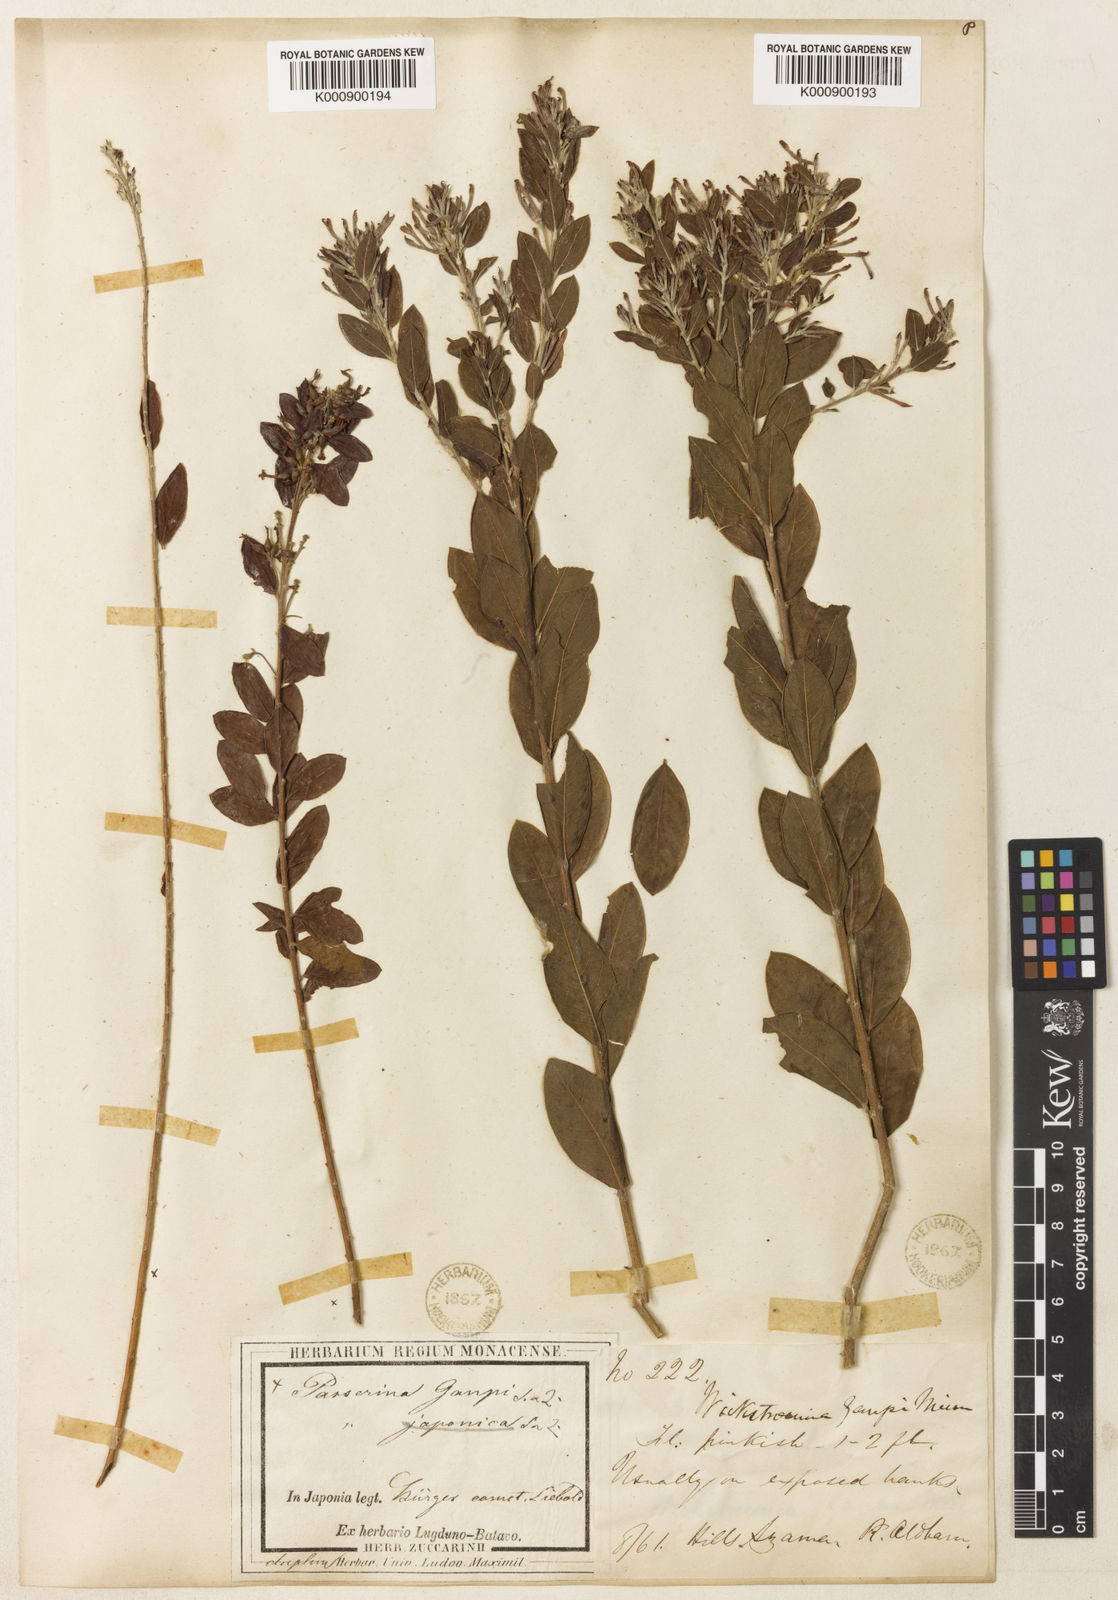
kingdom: Plantae
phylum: Tracheophyta
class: Magnoliopsida
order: Malvales
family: Thymelaeaceae
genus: Wikstroemia
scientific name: Wikstroemia canescens
